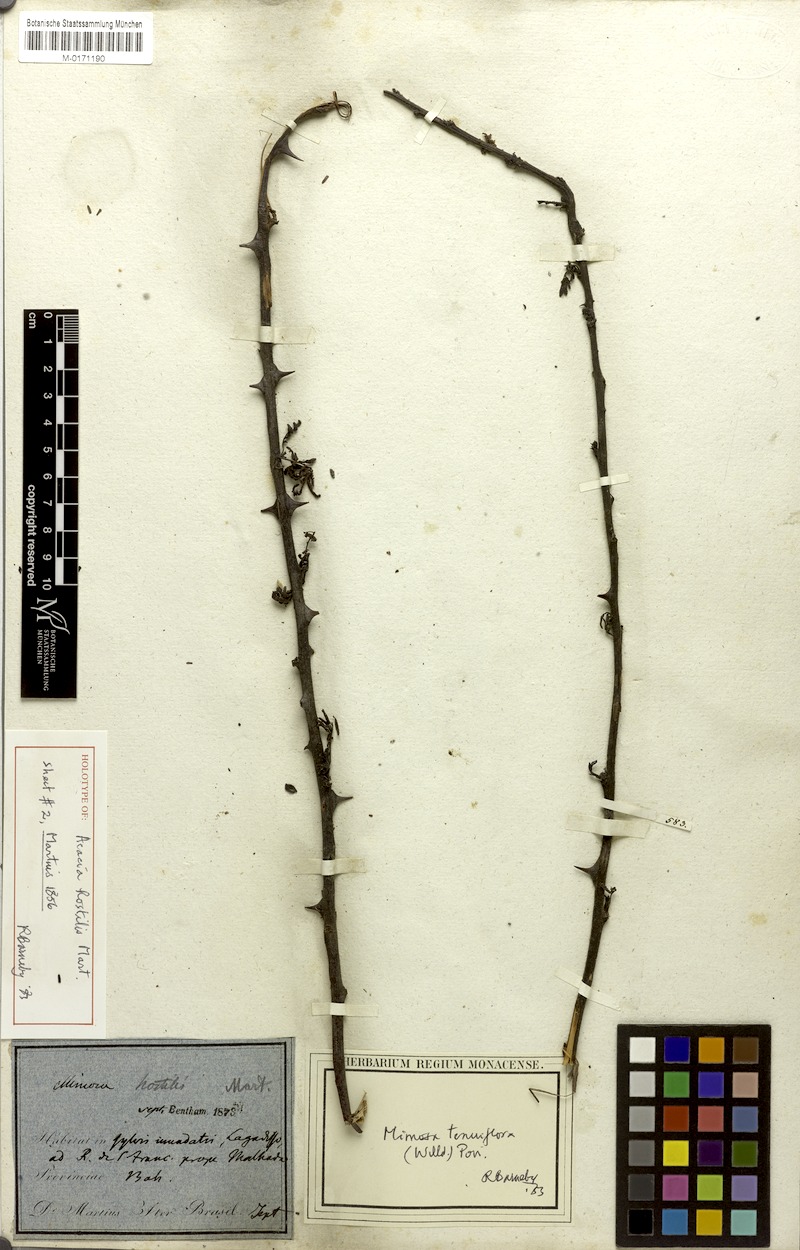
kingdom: Plantae
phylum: Tracheophyta
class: Magnoliopsida
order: Fabales
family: Fabaceae
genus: Mimosa
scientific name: Mimosa tenuiflora
